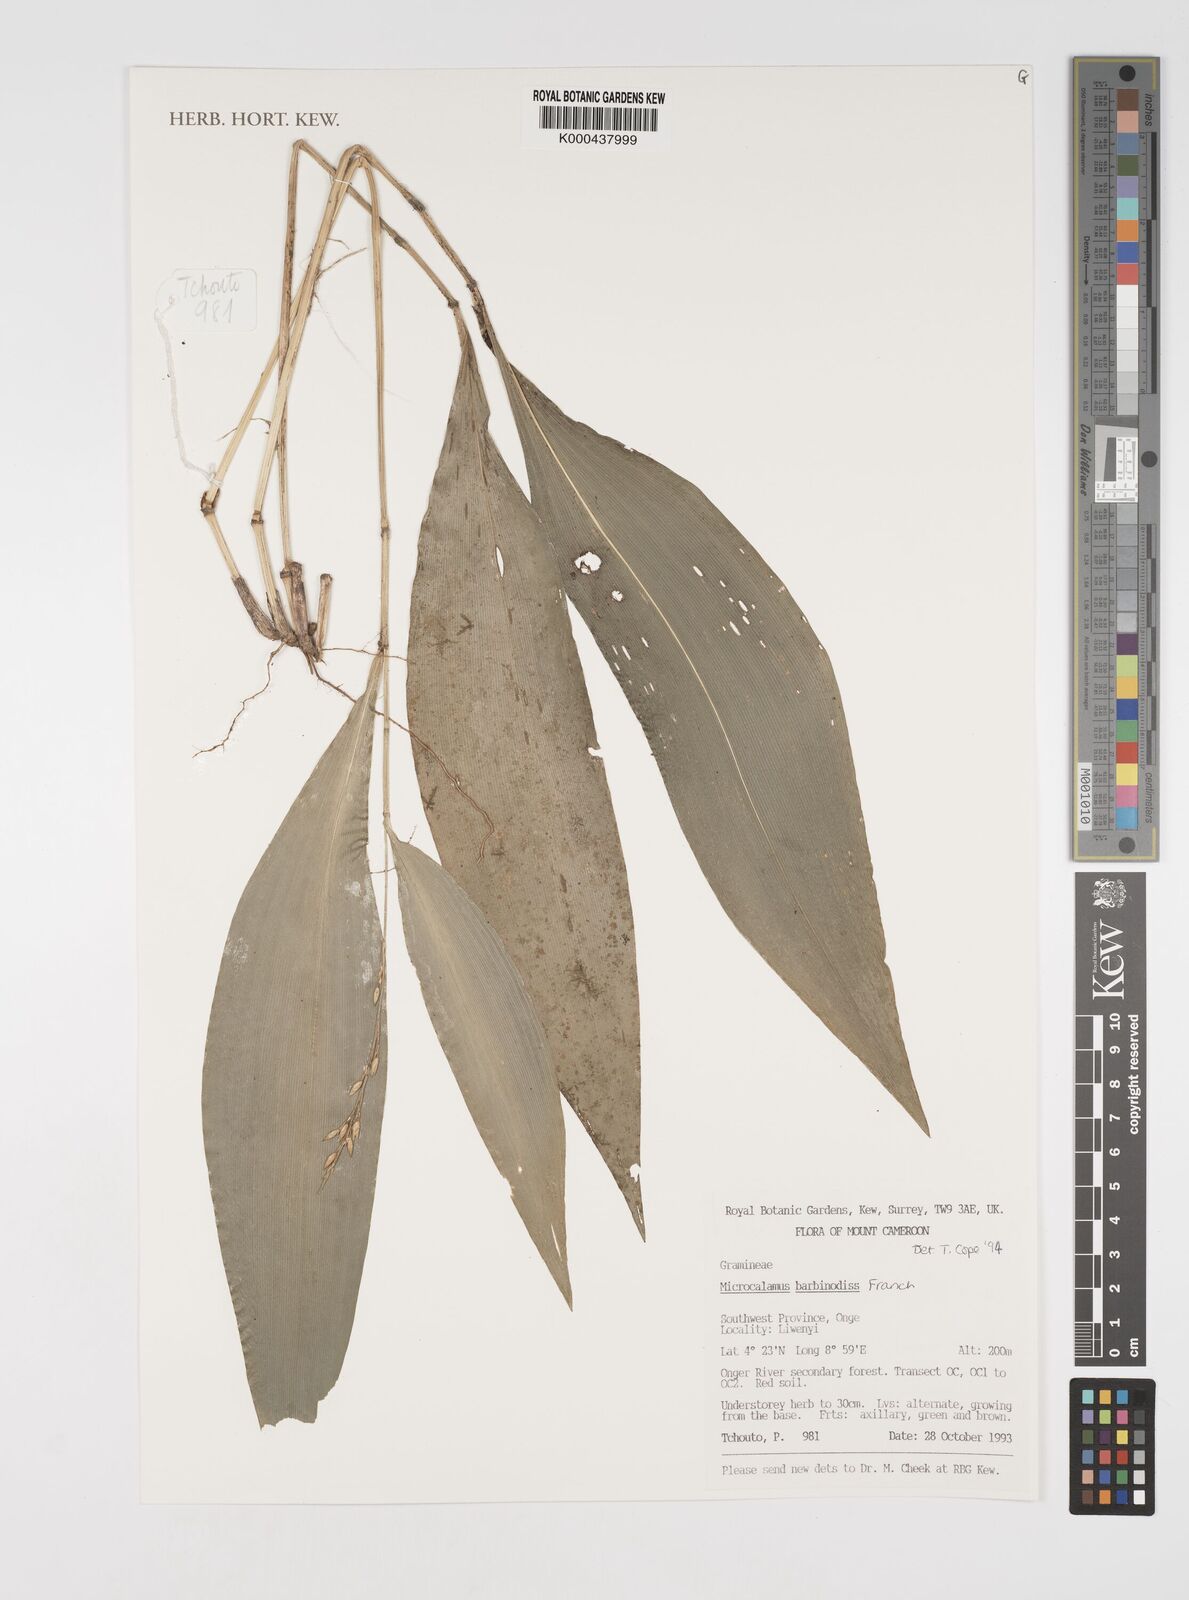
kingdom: Plantae
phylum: Tracheophyta
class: Liliopsida
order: Poales
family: Poaceae
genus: Microcalamus
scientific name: Microcalamus barbinodis
